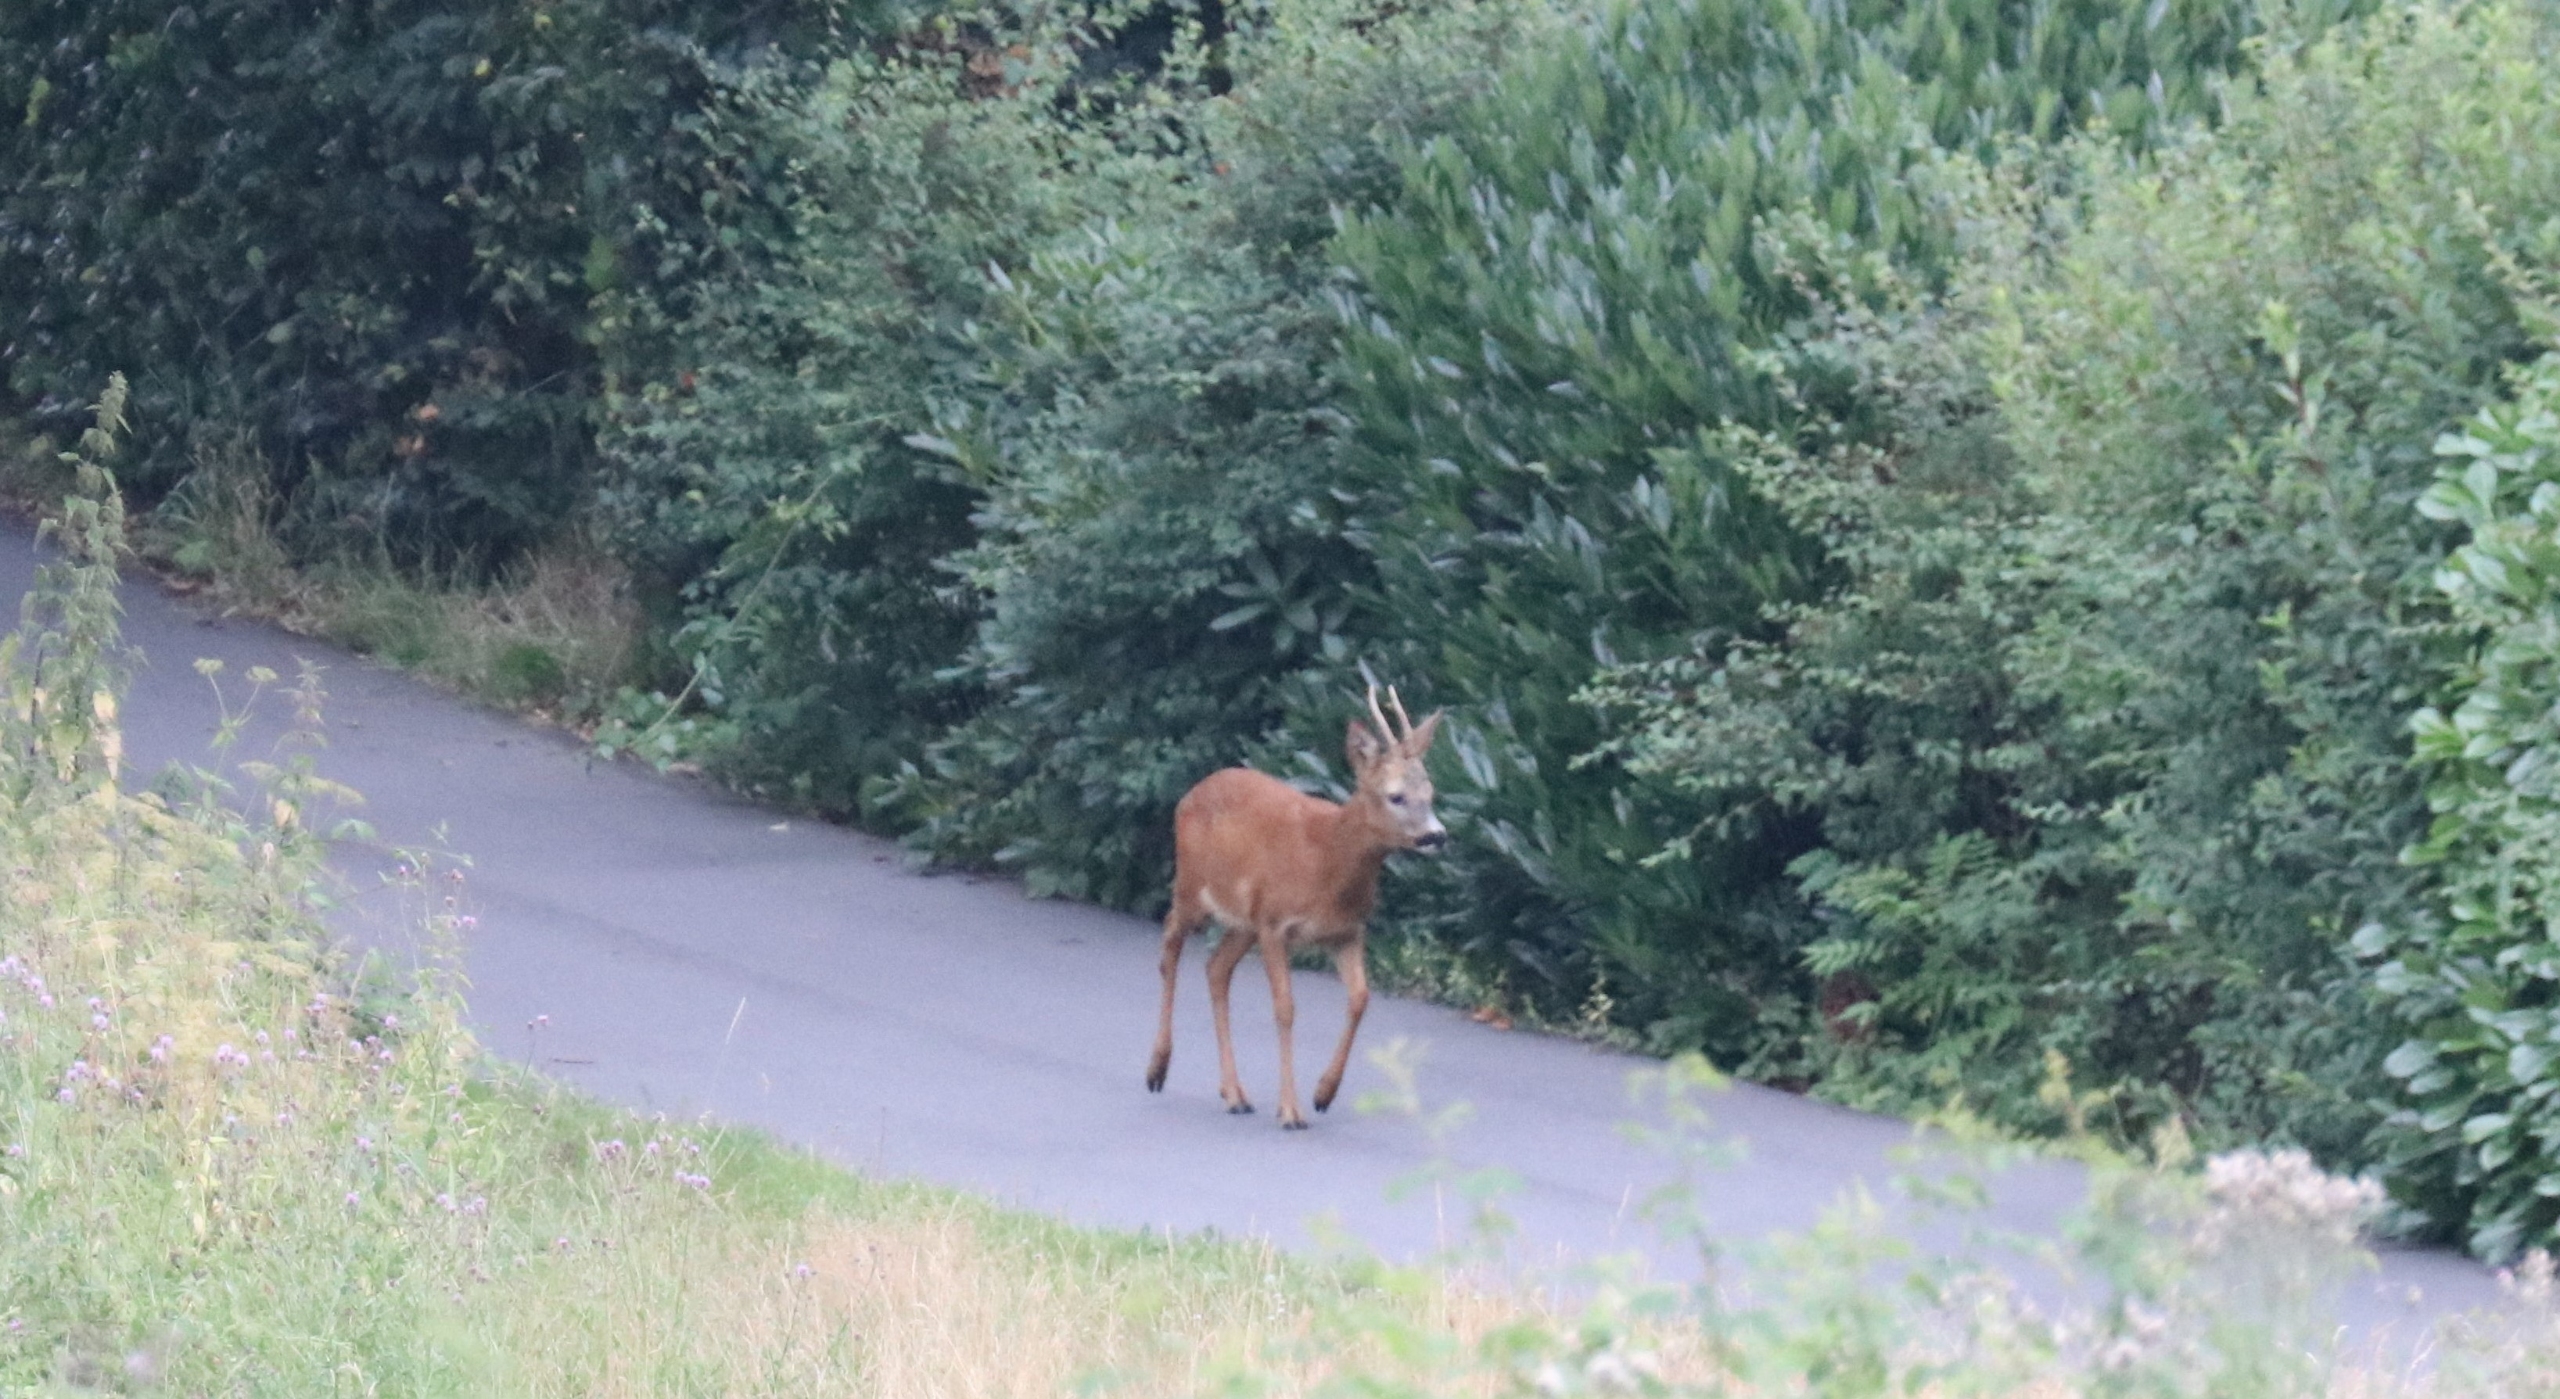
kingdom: Animalia
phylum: Chordata
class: Mammalia
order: Artiodactyla
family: Cervidae
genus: Capreolus
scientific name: Capreolus capreolus
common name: Rådyr
